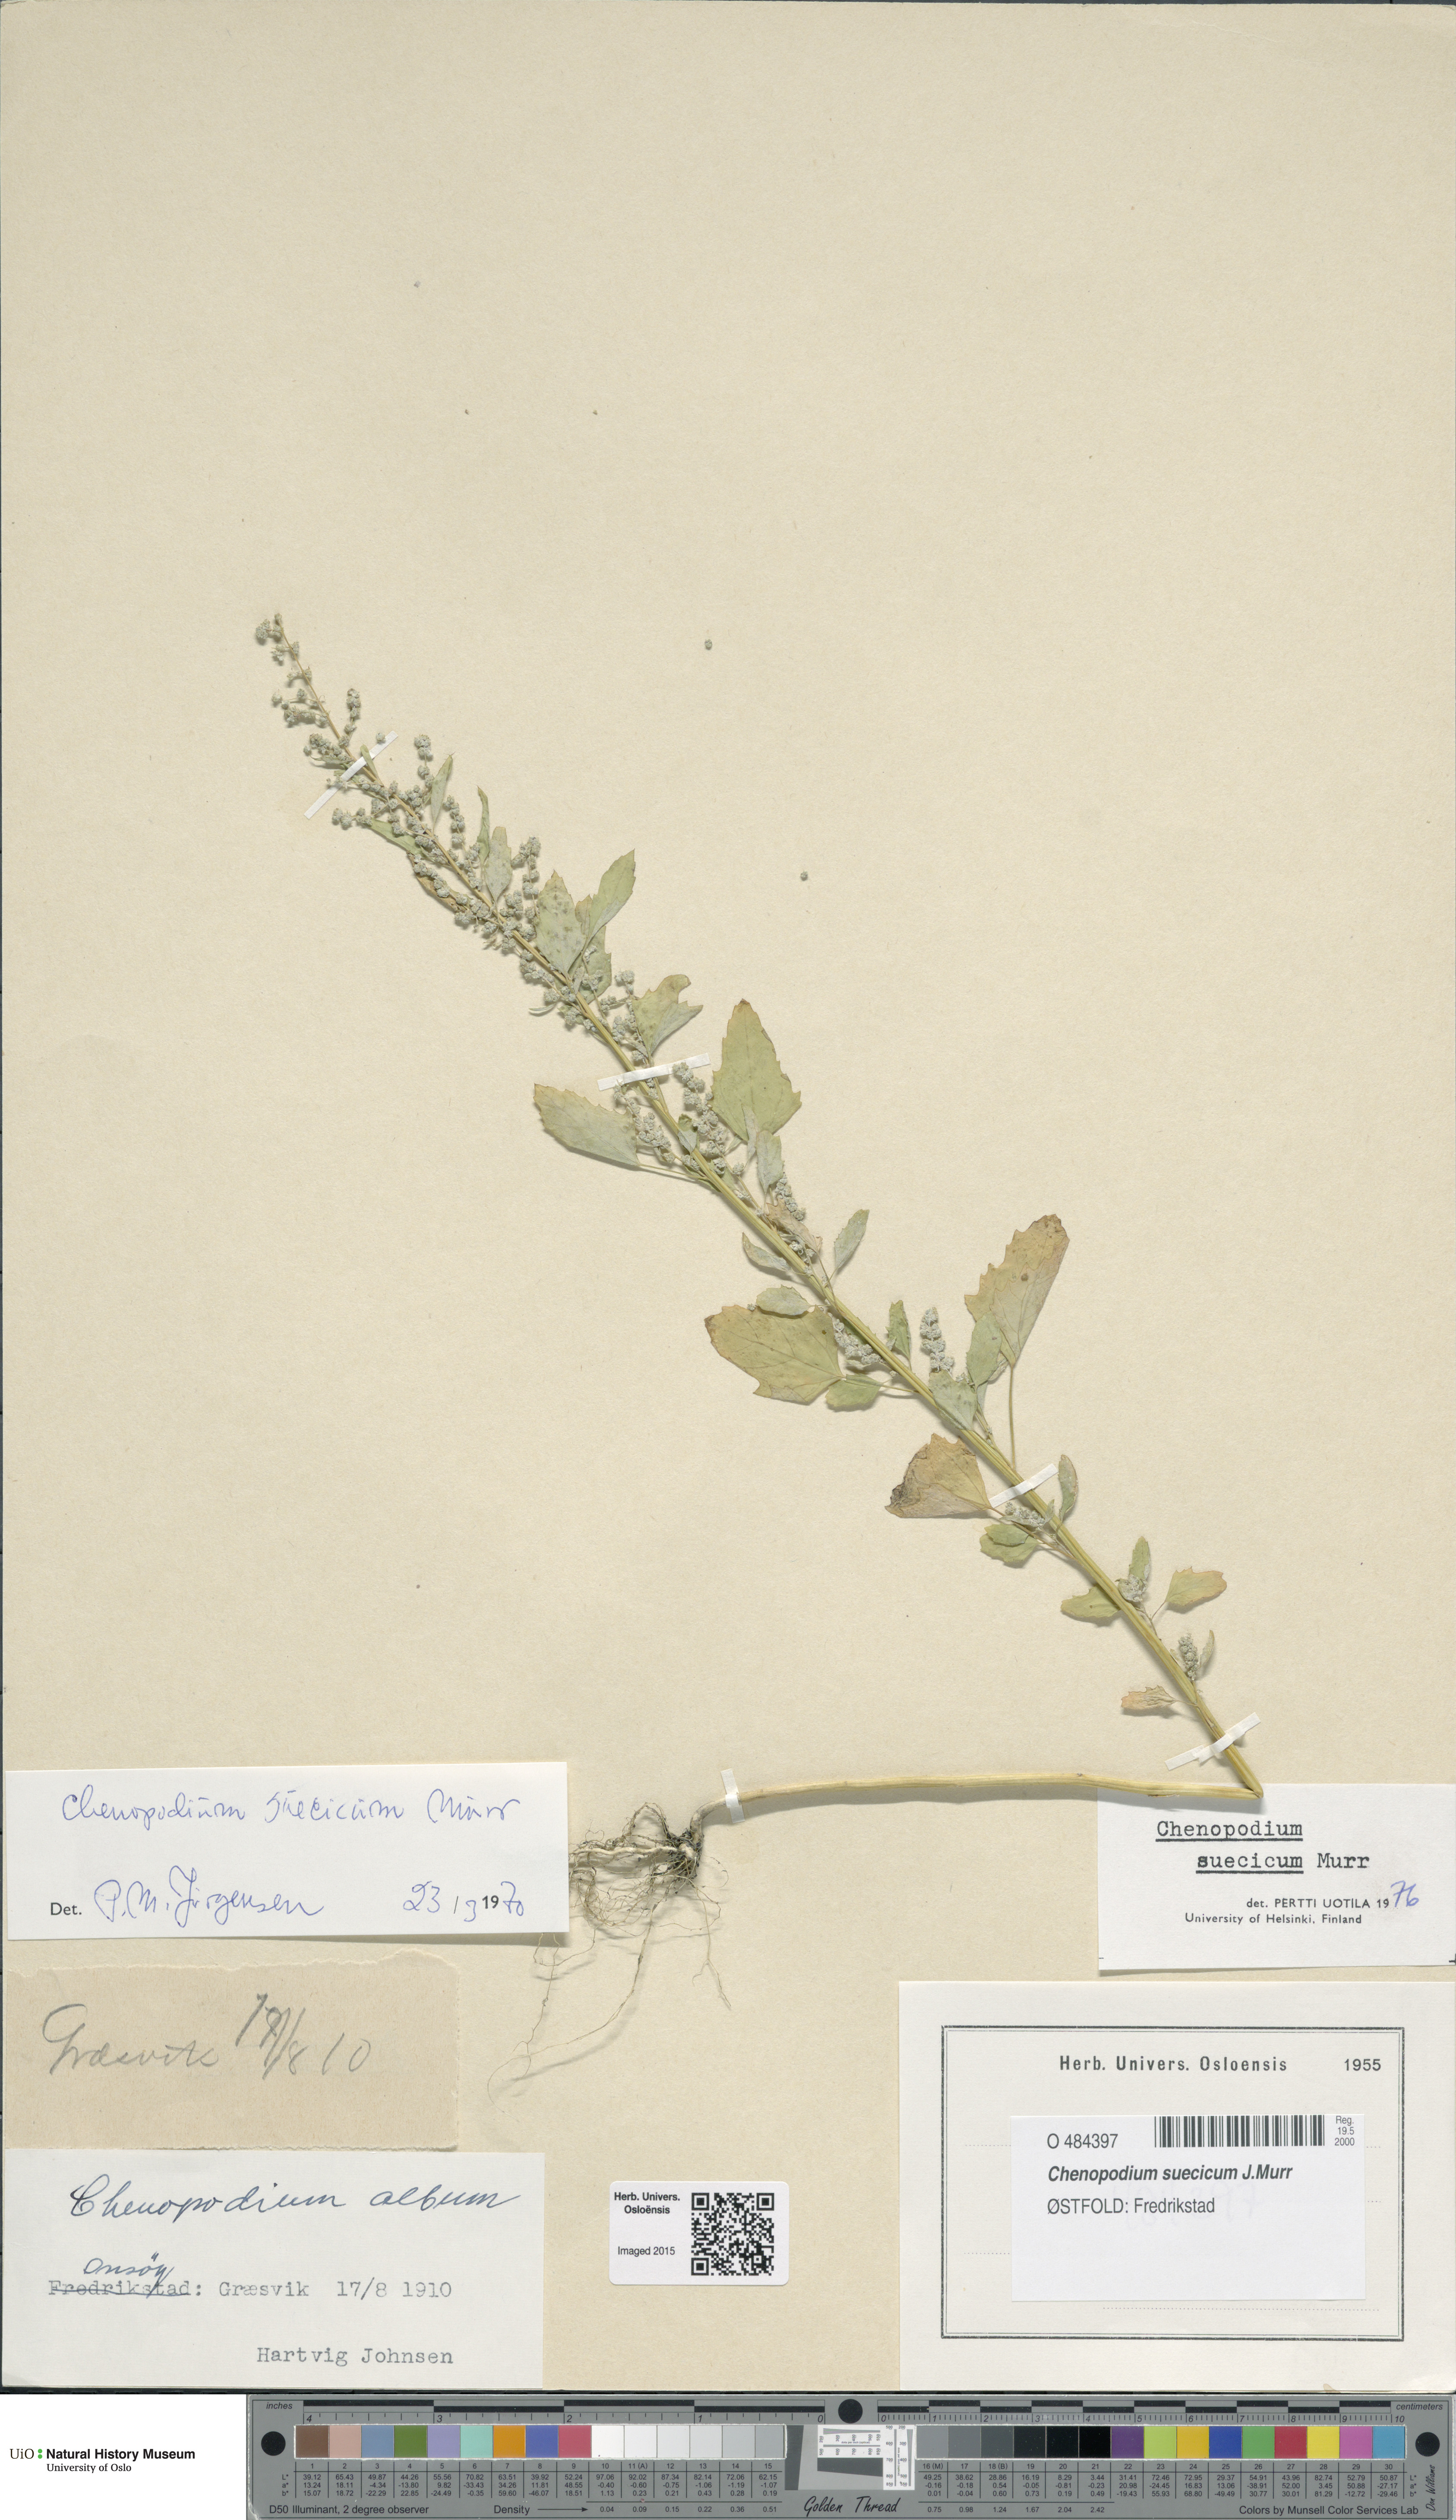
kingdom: Plantae
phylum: Tracheophyta
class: Magnoliopsida
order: Caryophyllales
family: Amaranthaceae
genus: Chenopodium
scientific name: Chenopodium suecicum
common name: Swedish goosefoot
